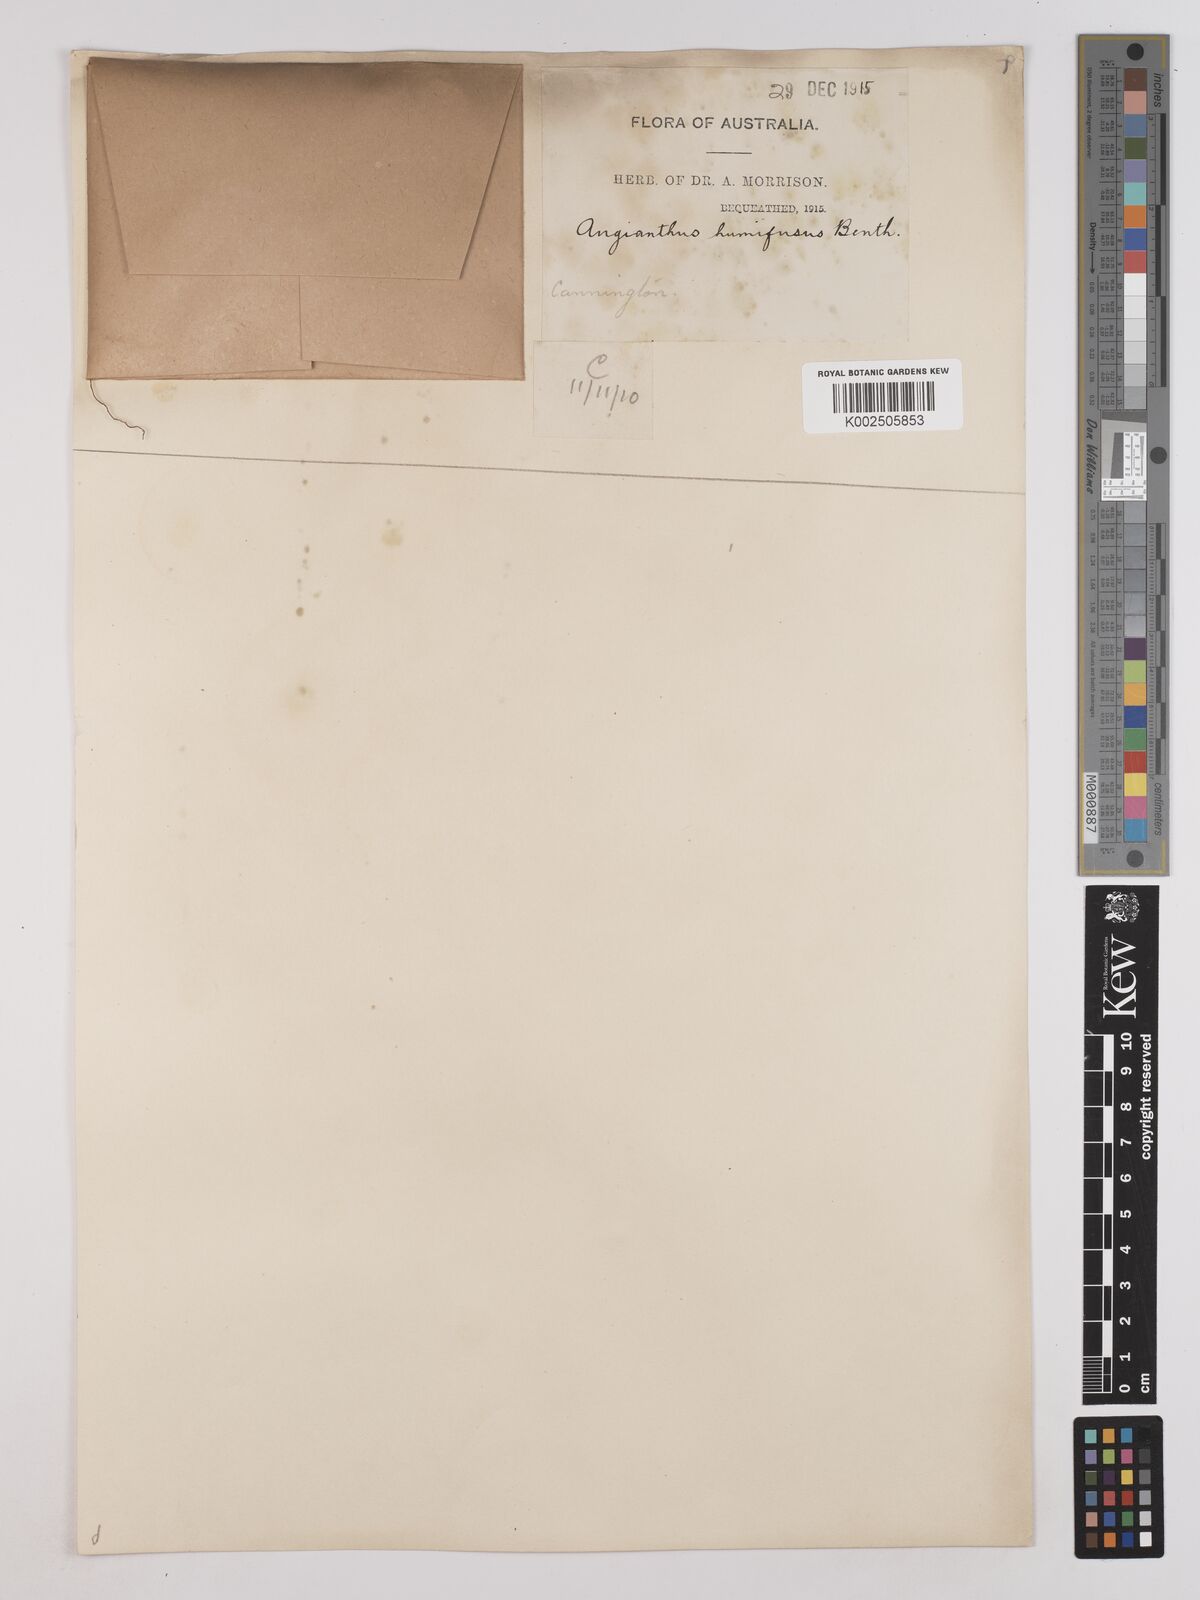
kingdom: Plantae
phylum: Tracheophyta
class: Magnoliopsida
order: Asterales
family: Asteraceae
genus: Siloxerus
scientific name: Siloxerus humifusus
